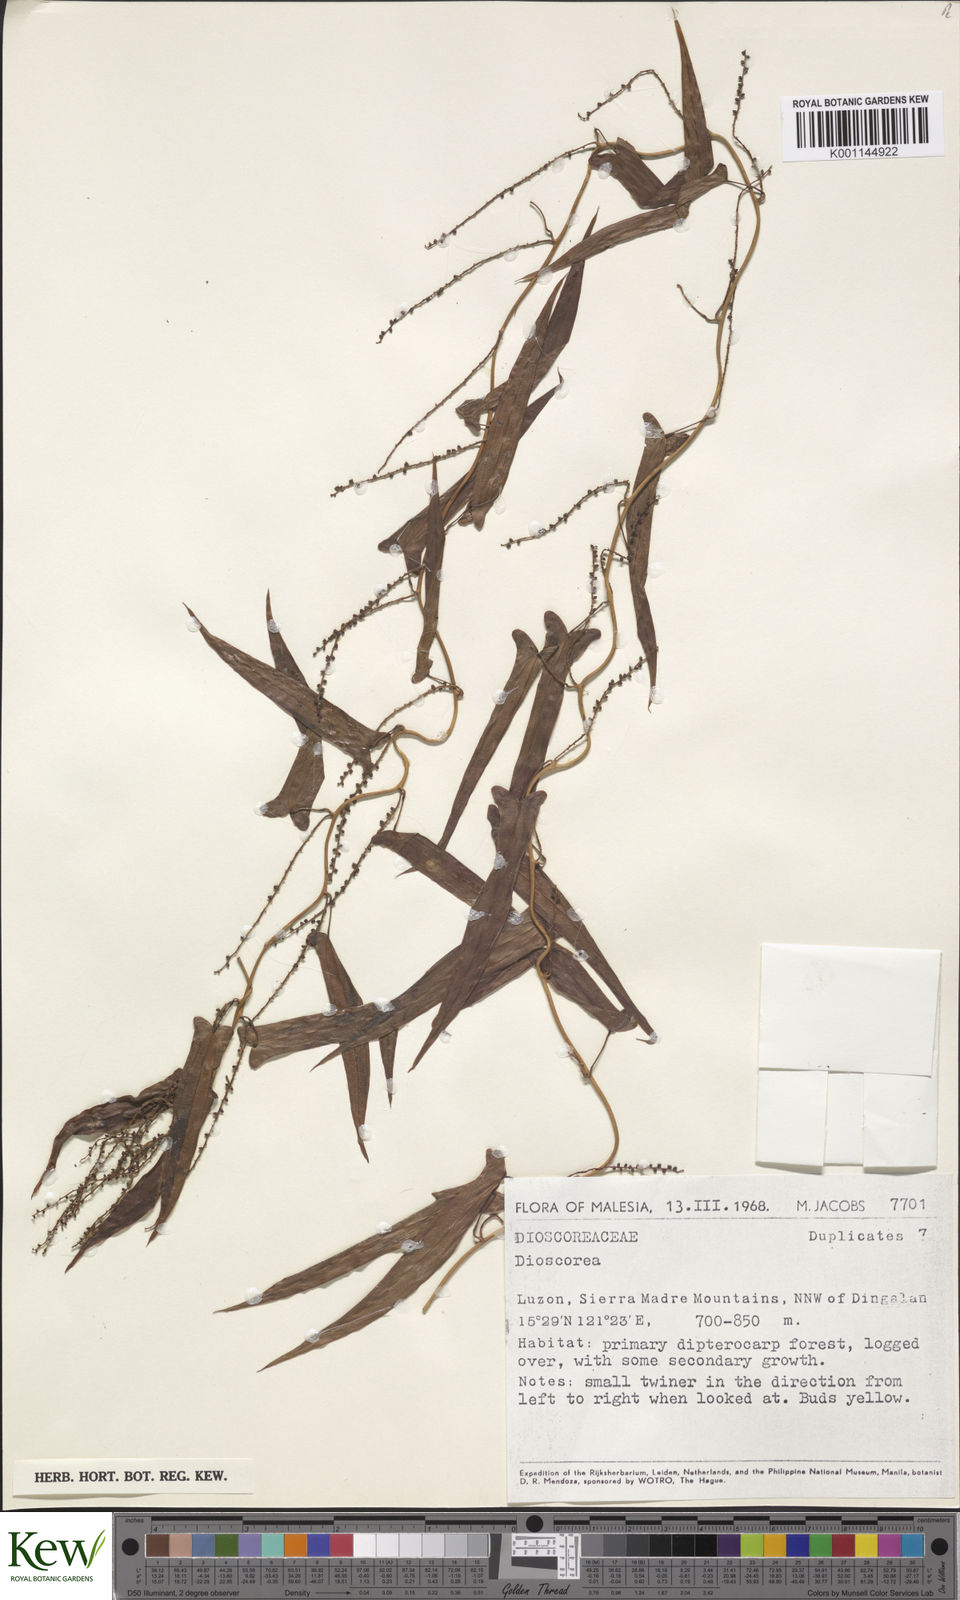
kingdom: Plantae
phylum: Tracheophyta
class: Liliopsida
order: Dioscoreales
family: Dioscoreaceae
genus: Dioscorea
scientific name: Dioscorea
